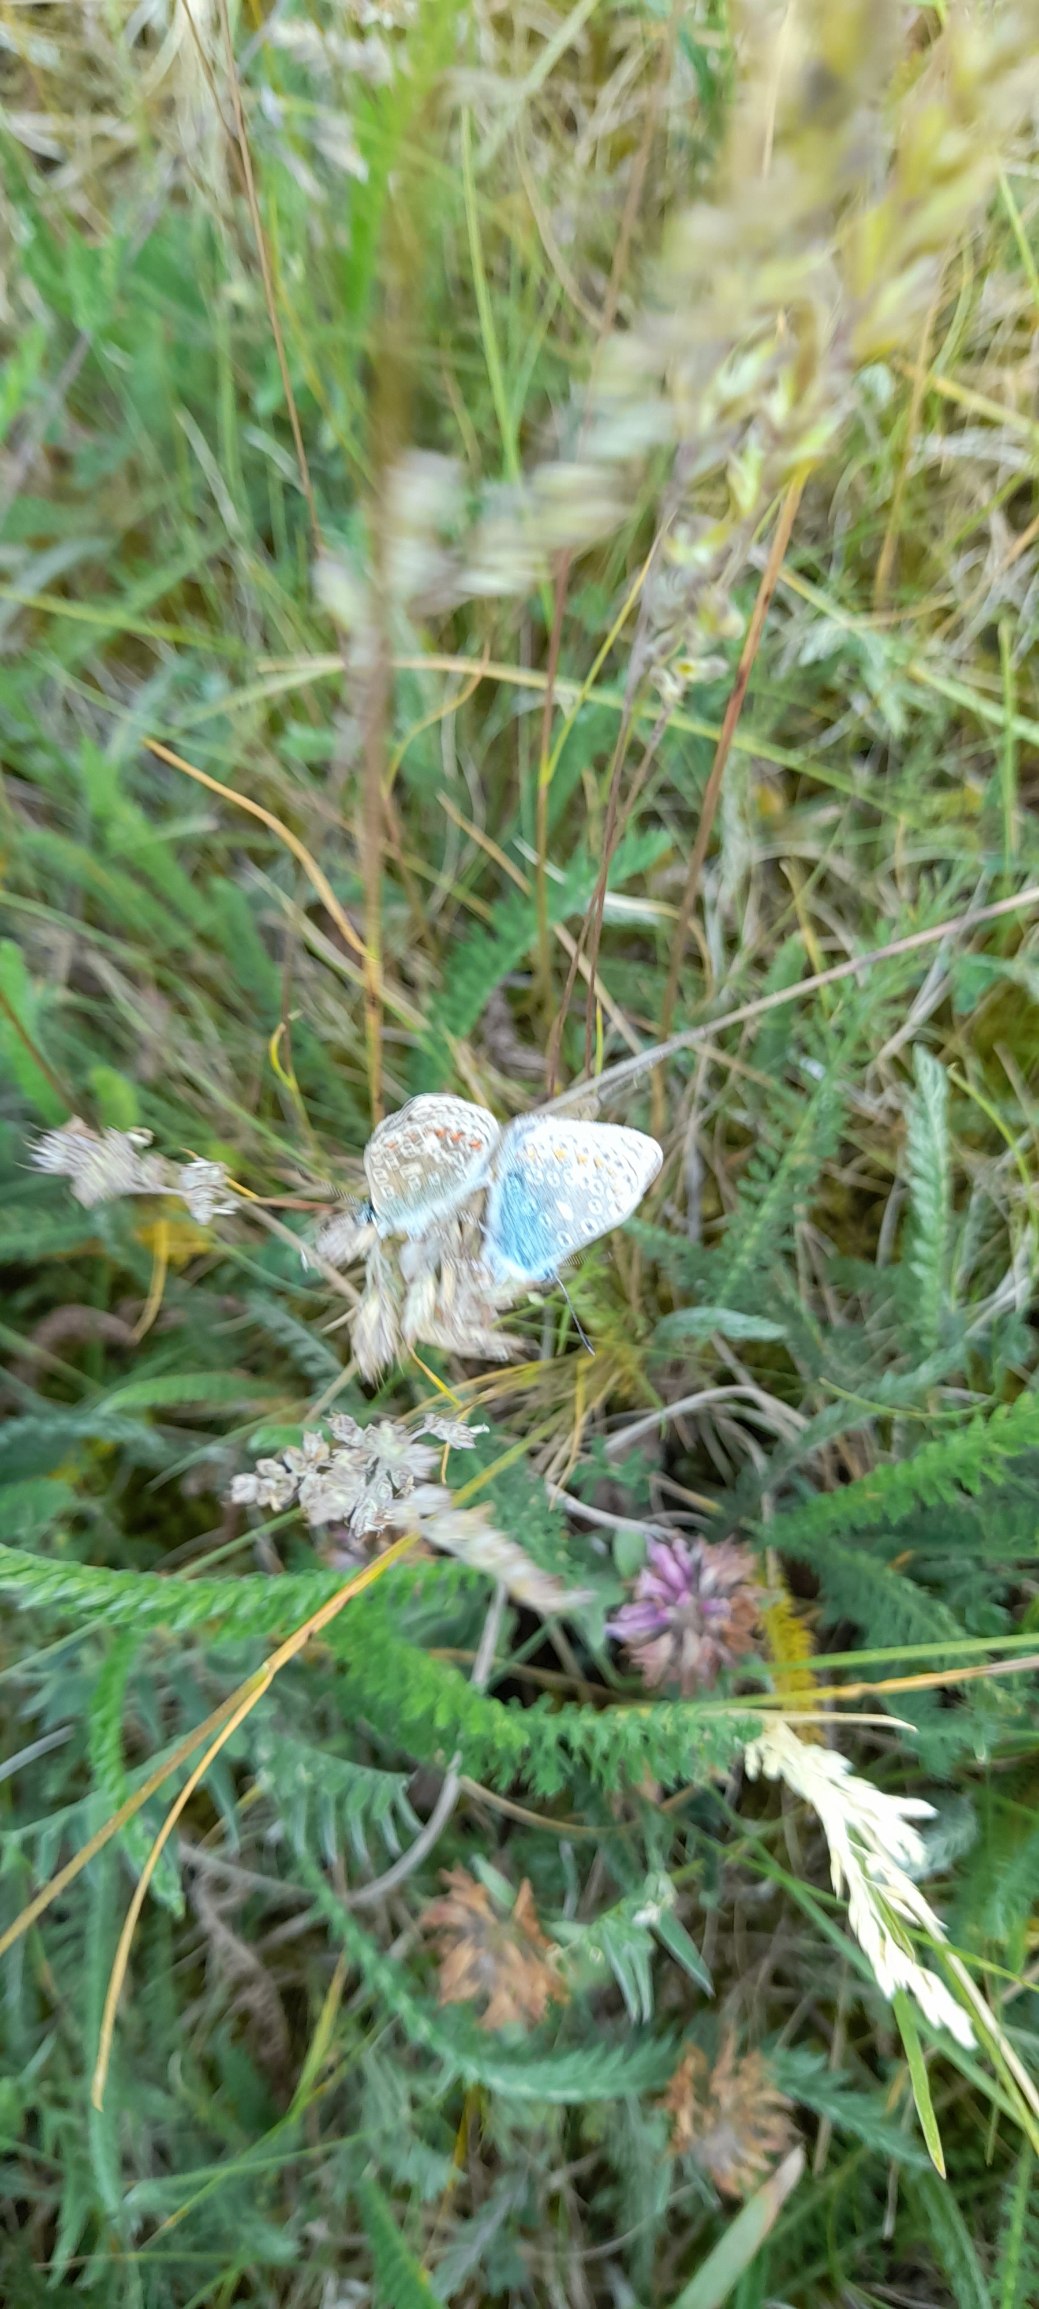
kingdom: Animalia
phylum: Arthropoda
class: Insecta
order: Lepidoptera
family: Lycaenidae
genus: Polyommatus
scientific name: Polyommatus icarus
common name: Almindelig blåfugl
